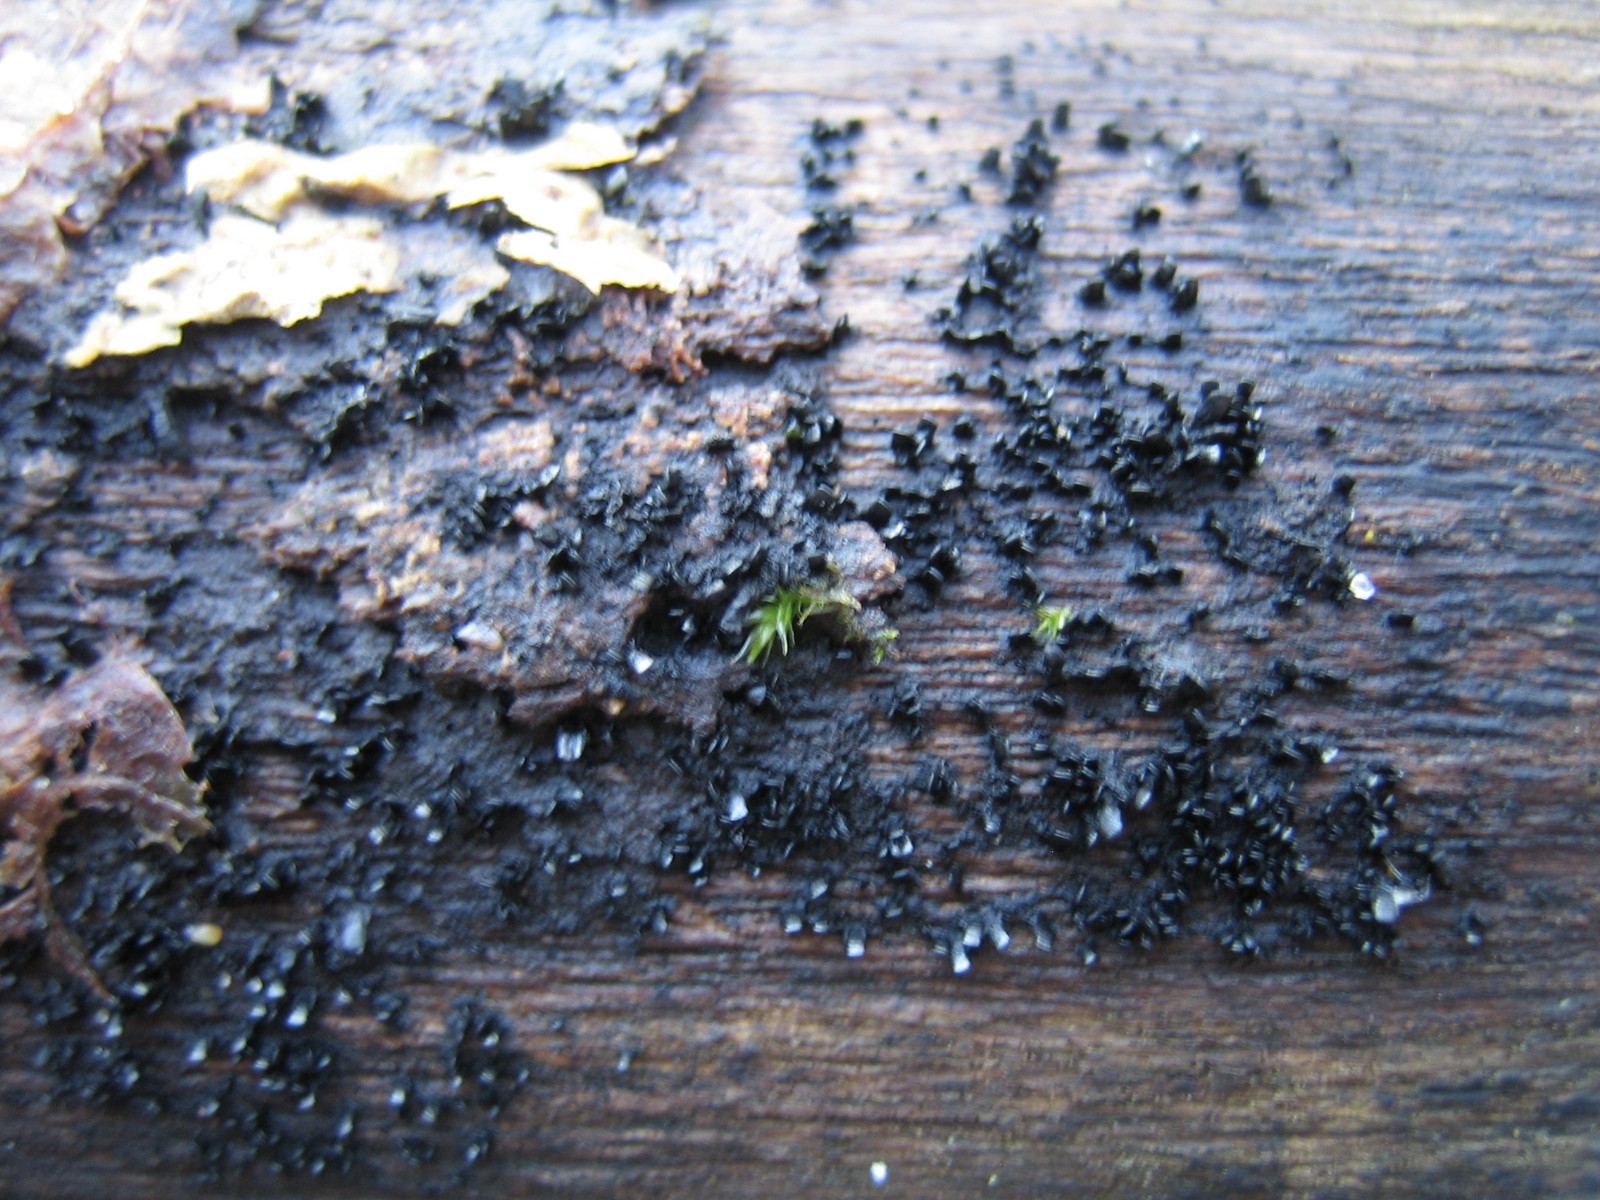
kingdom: Fungi
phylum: Ascomycota
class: Eurotiomycetes
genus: Glyphium
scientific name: Glyphium elatum
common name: kuløkse
